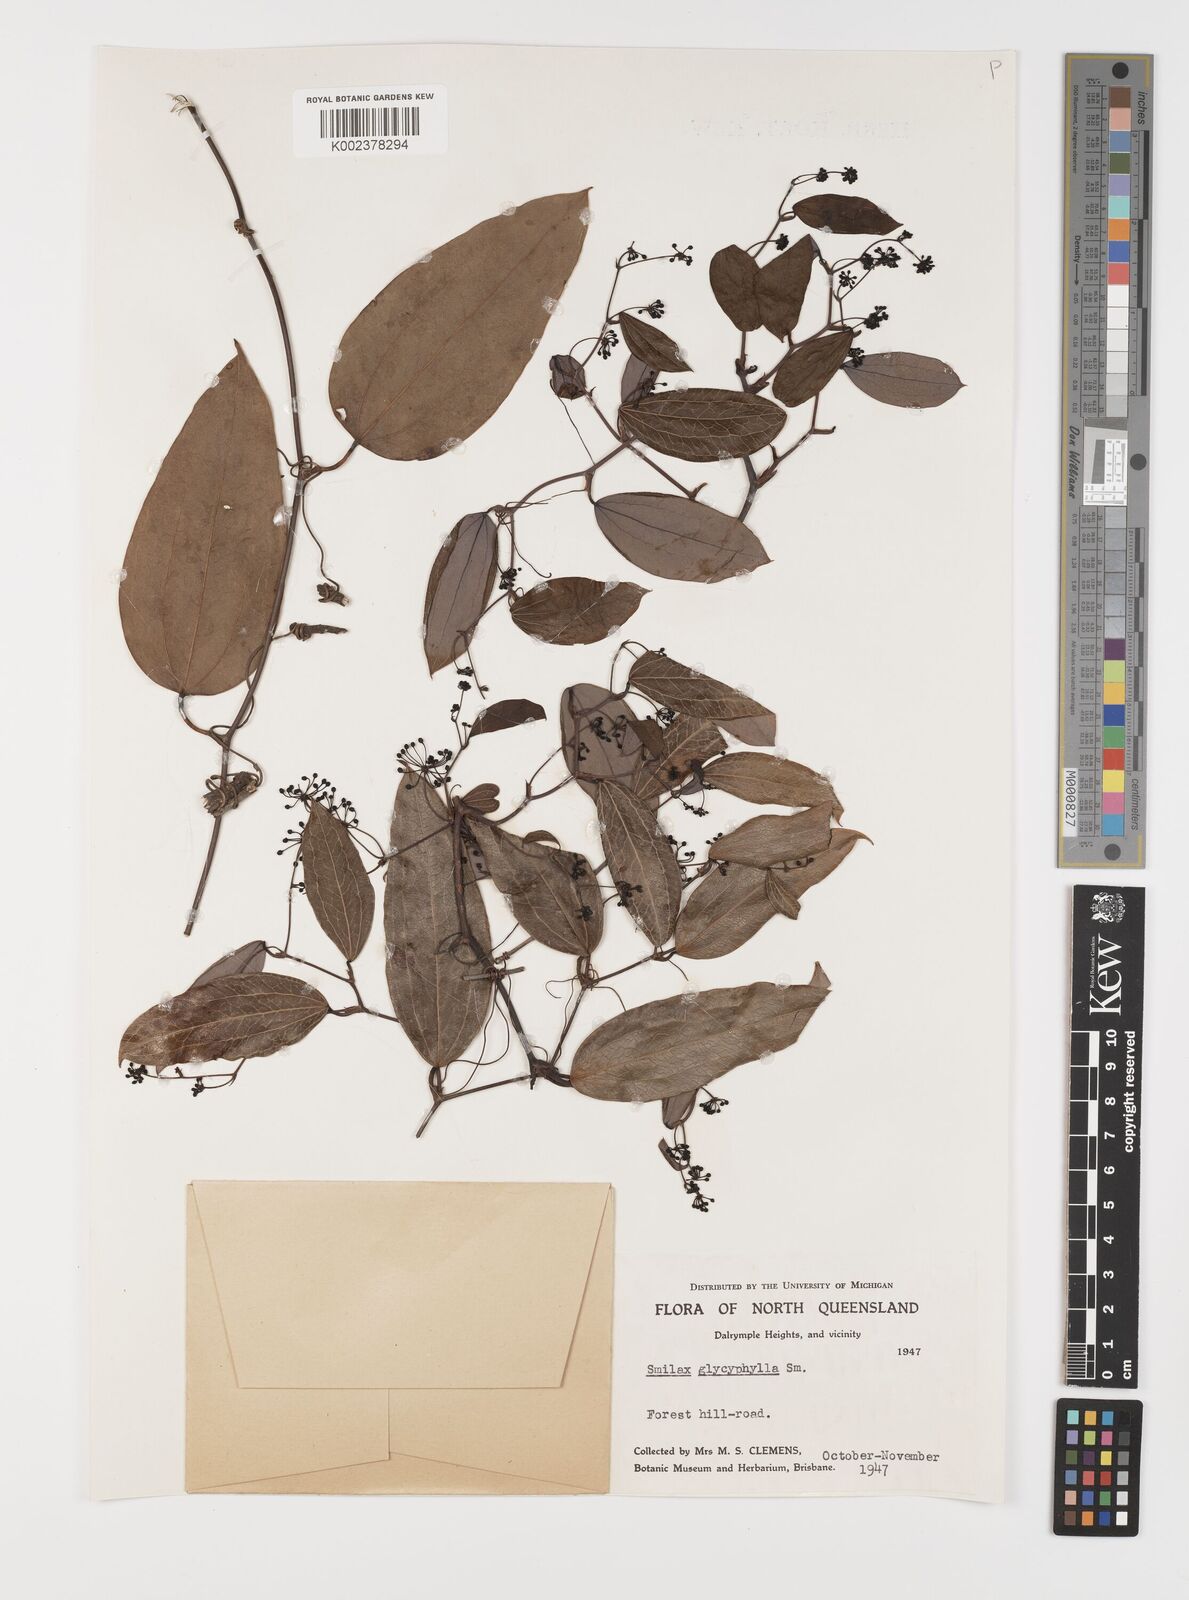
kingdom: Plantae
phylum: Tracheophyta
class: Liliopsida
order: Liliales
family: Smilacaceae
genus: Smilax
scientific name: Smilax
